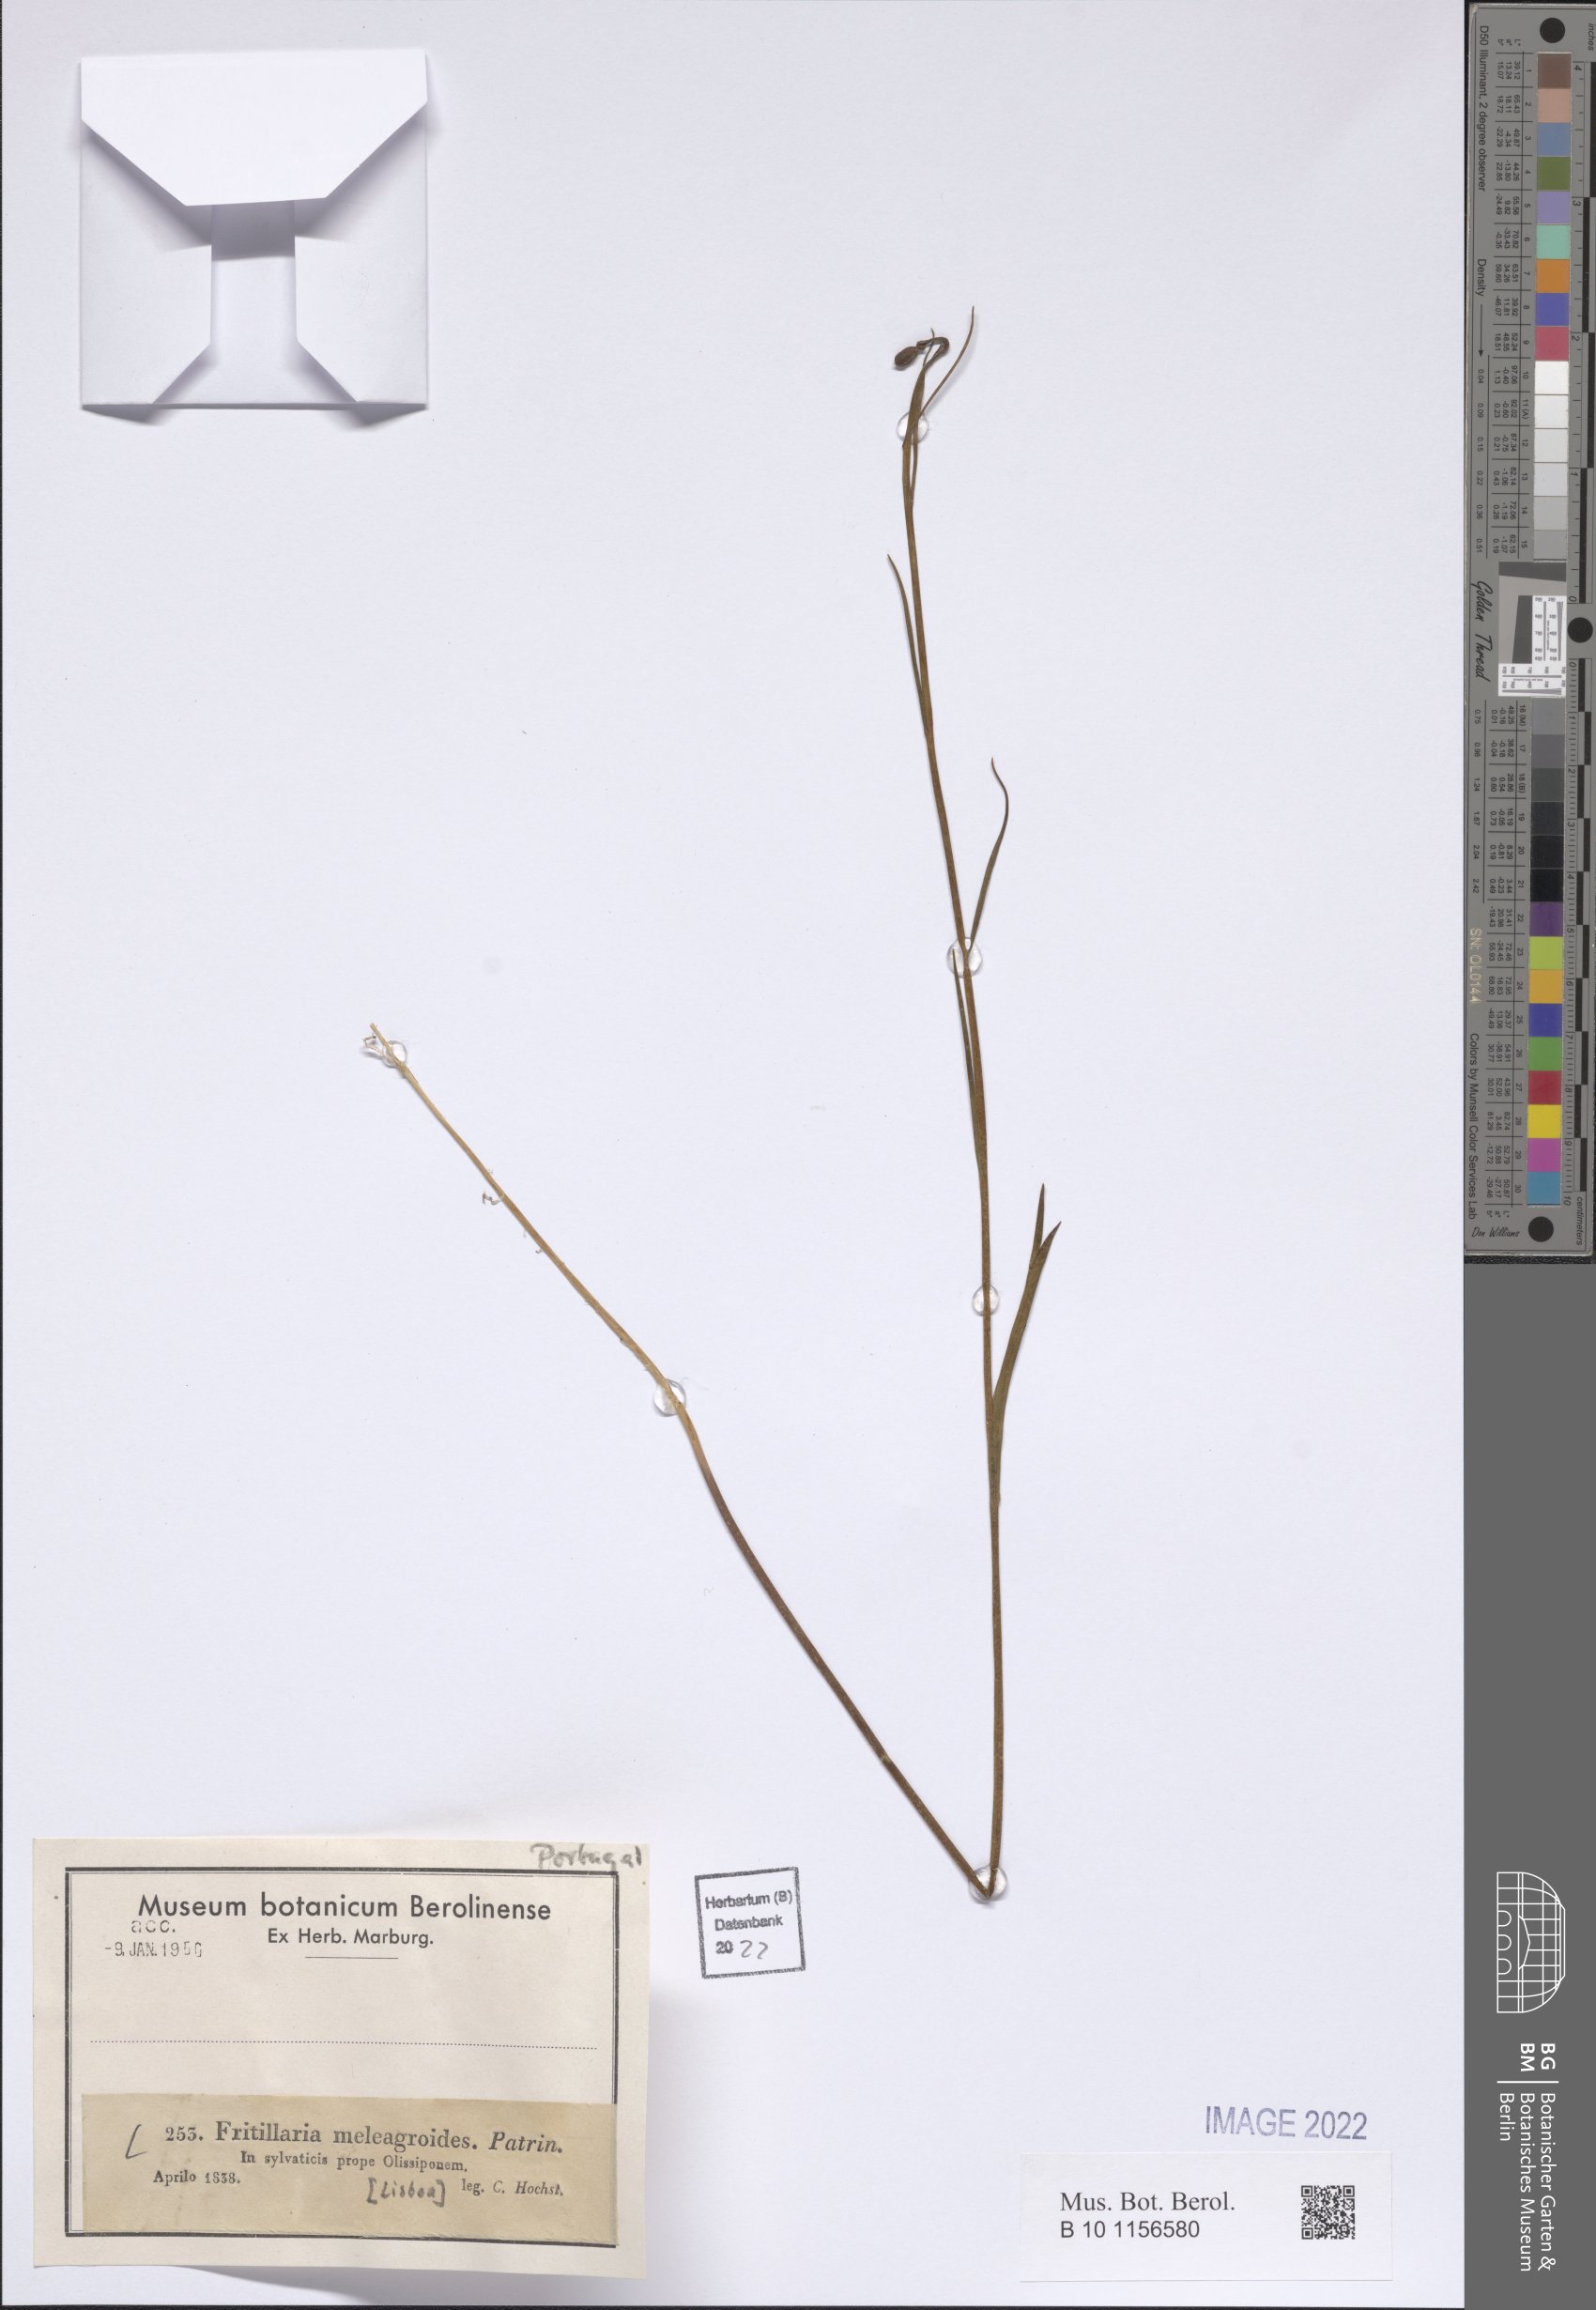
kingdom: Plantae
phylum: Tracheophyta
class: Liliopsida
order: Liliales
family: Liliaceae
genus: Fritillaria
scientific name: Fritillaria meleagroides
